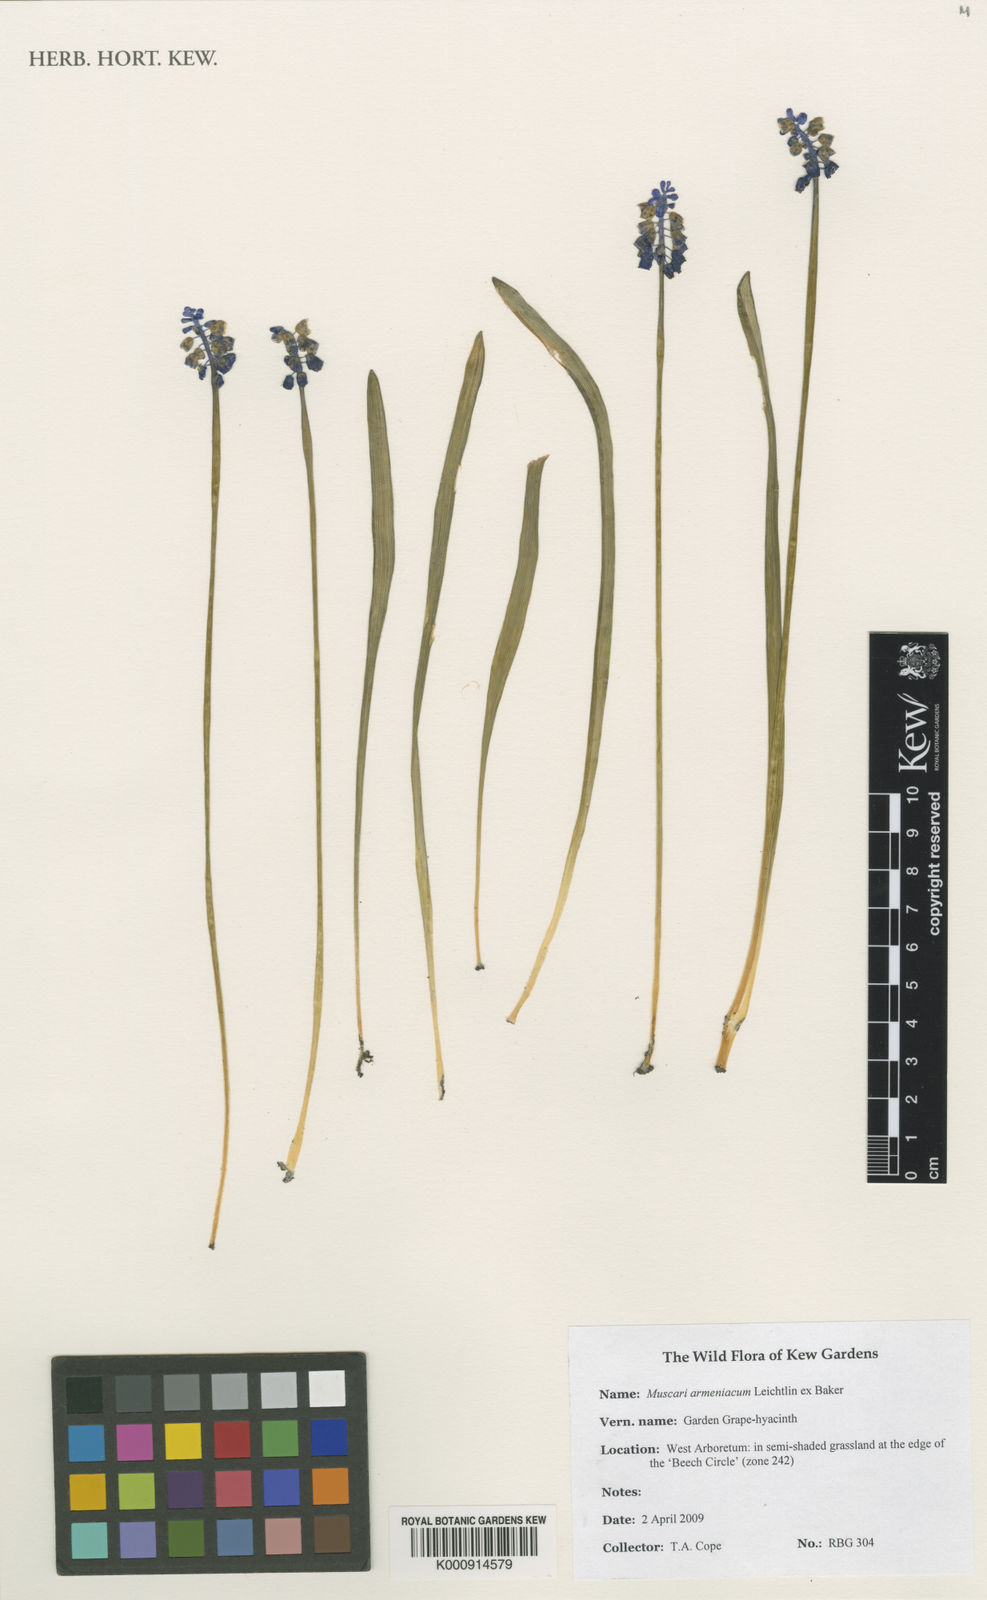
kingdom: Plantae
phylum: Tracheophyta
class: Liliopsida
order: Asparagales
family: Asparagaceae
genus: Muscari
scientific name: Muscari
